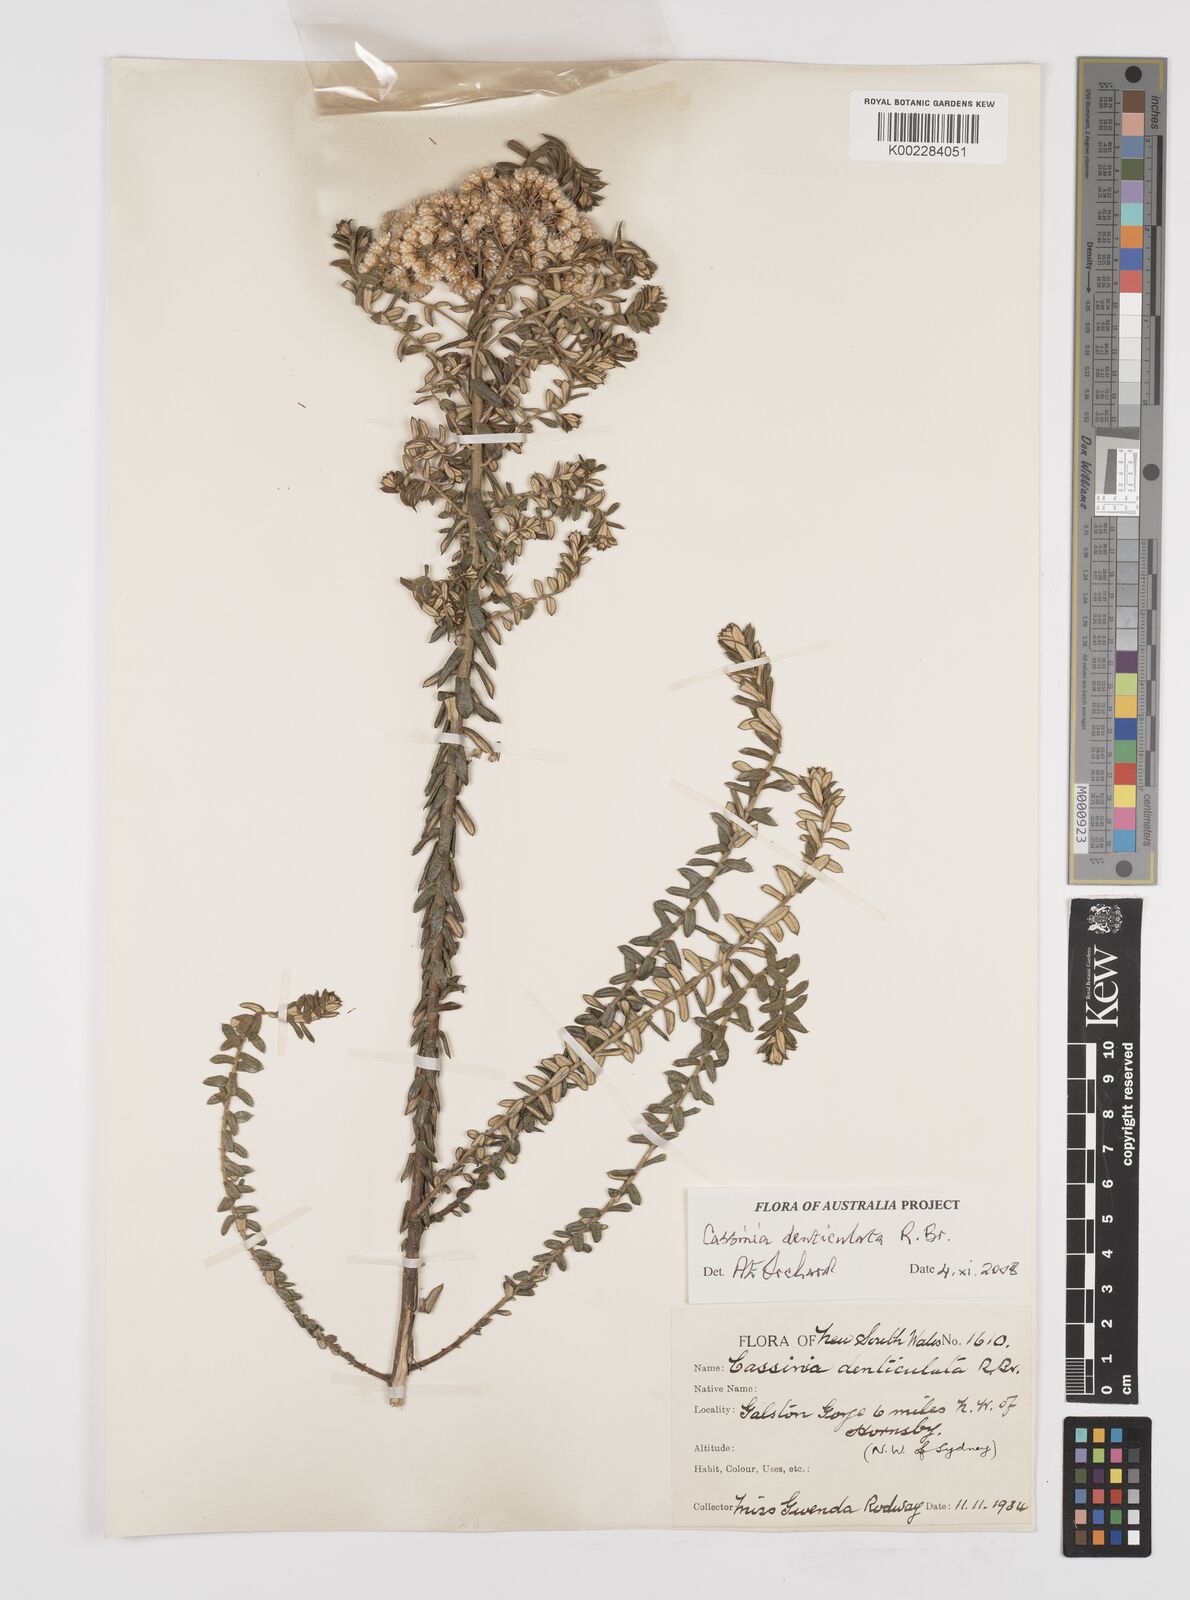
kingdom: Plantae
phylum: Tracheophyta
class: Magnoliopsida
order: Asterales
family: Asteraceae
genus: Cassinia
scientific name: Cassinia denticulata
